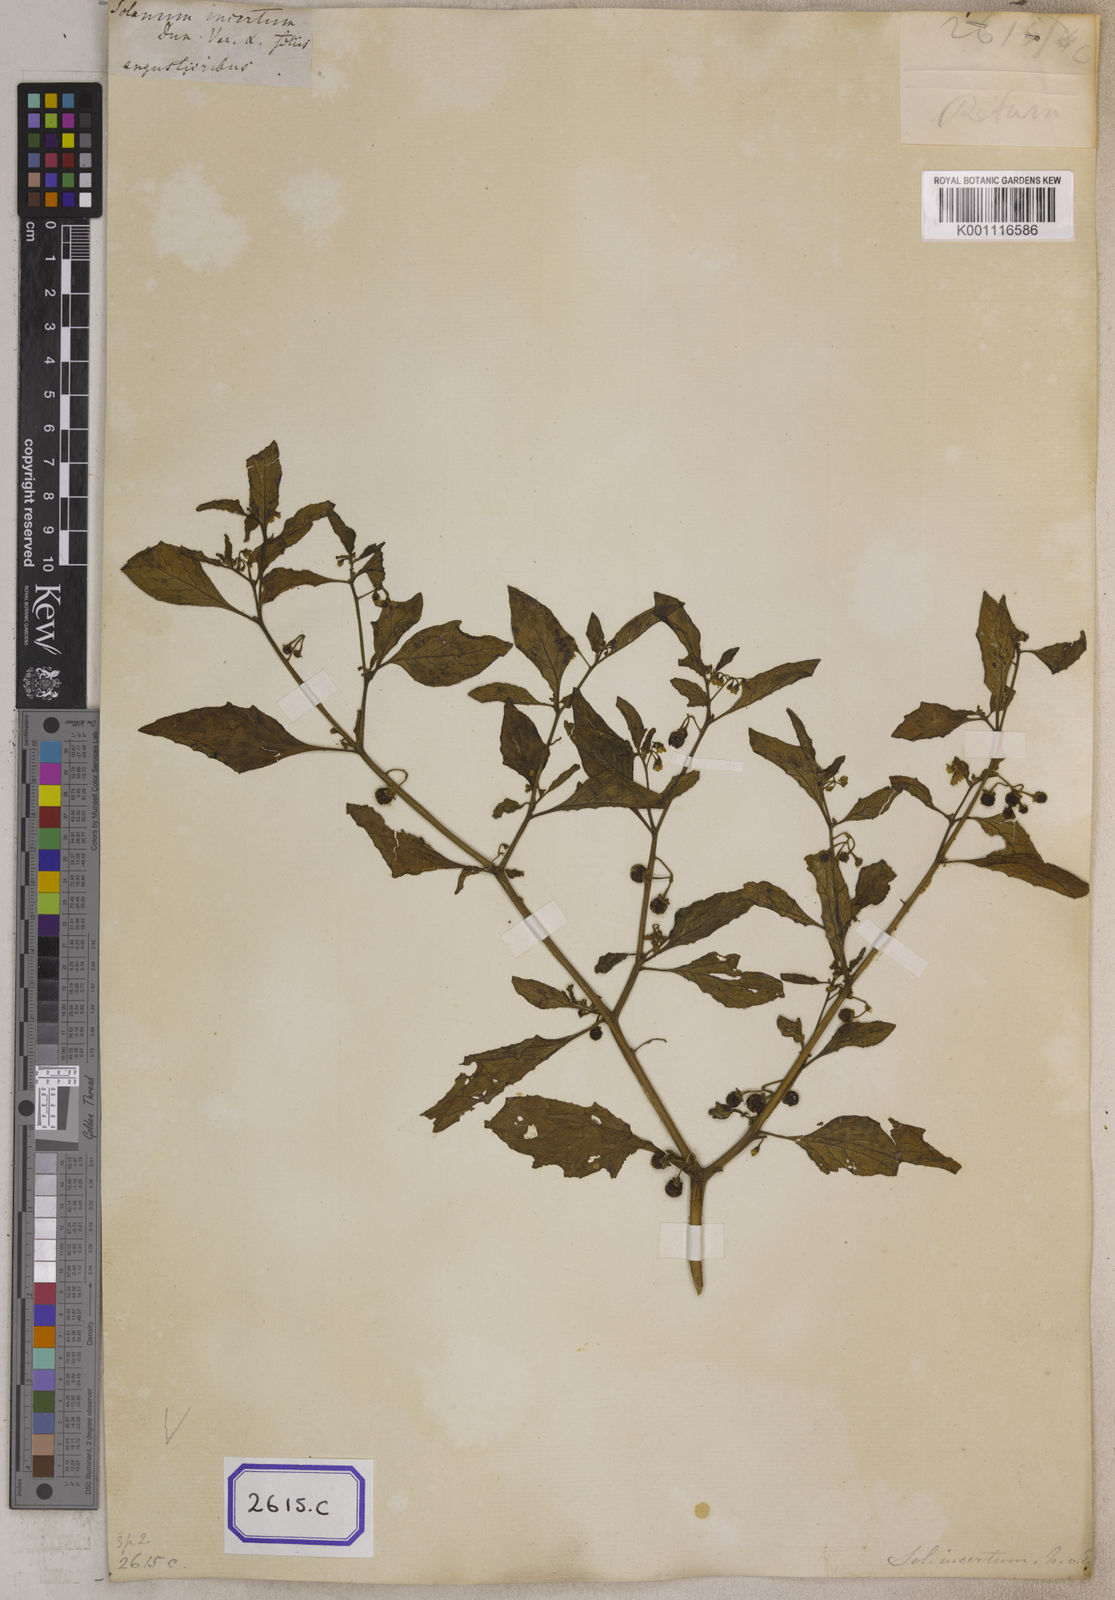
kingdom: Plantae
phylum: Tracheophyta
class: Magnoliopsida
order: Solanales
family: Solanaceae
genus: Solanum
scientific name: Solanum nigrum
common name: Black nightshade
